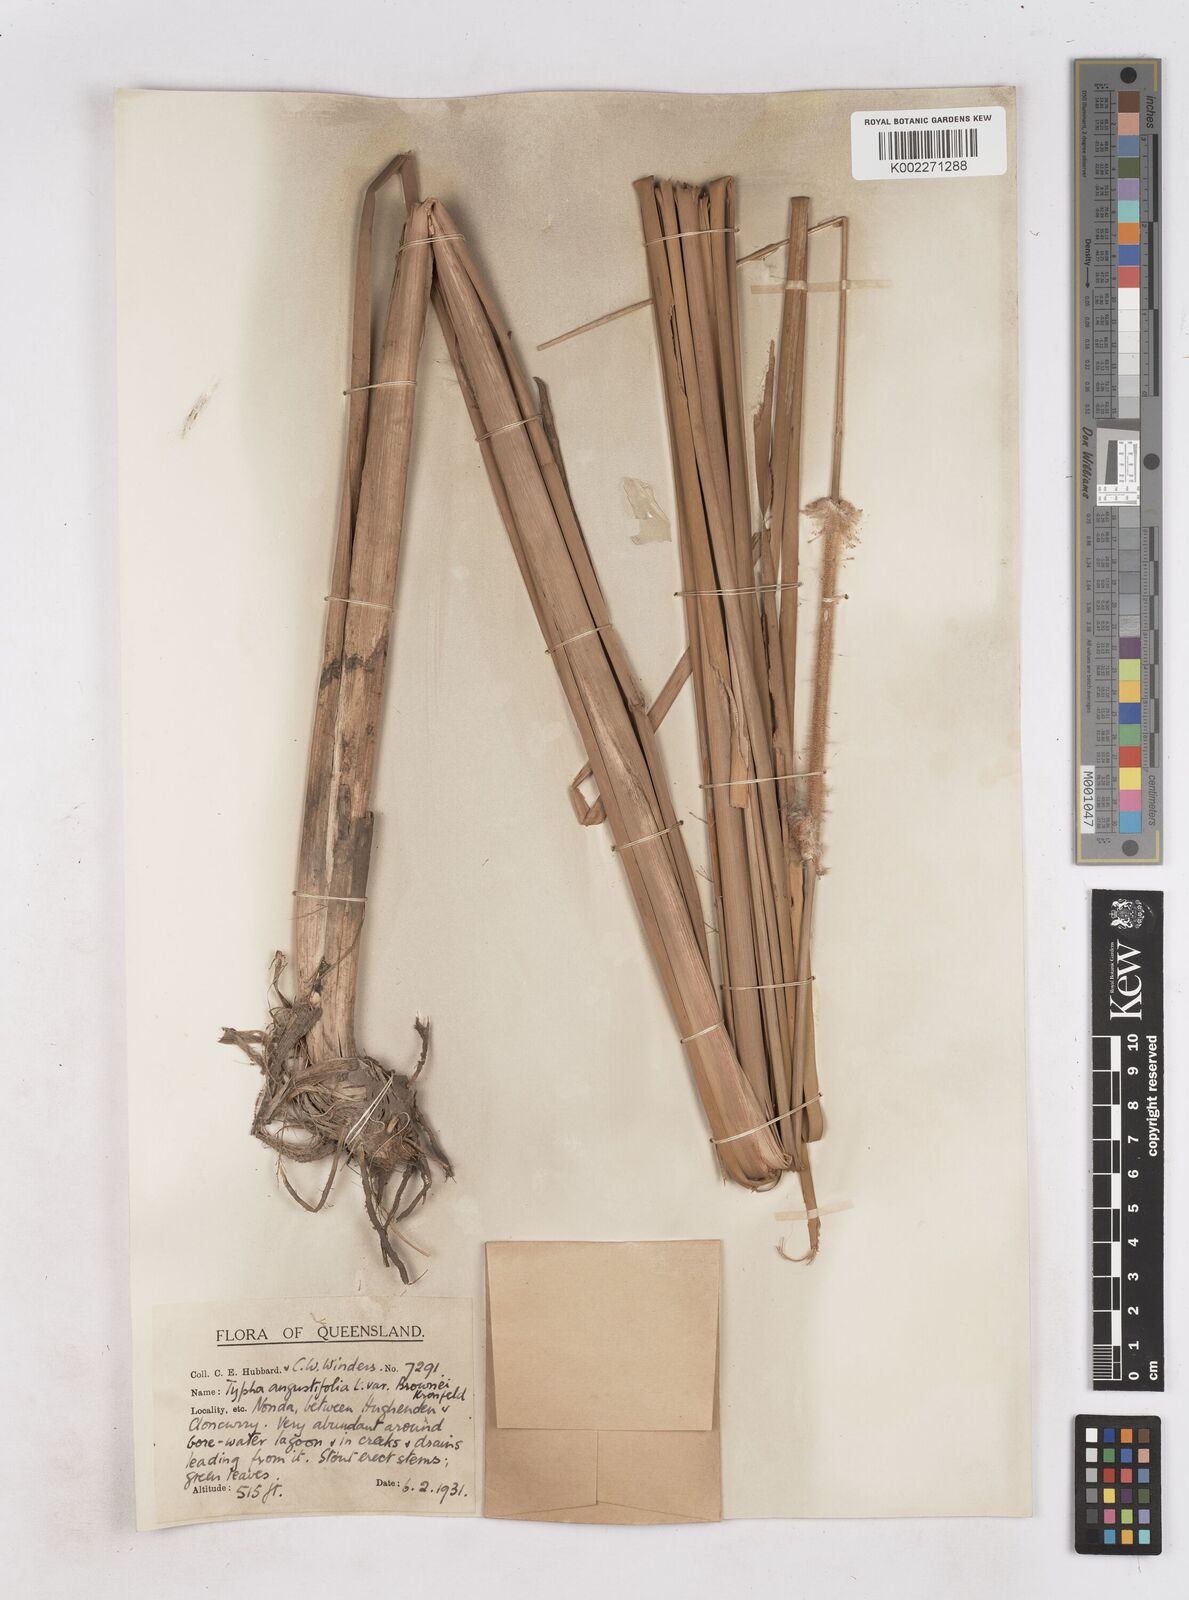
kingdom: Plantae
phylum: Tracheophyta
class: Liliopsida
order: Poales
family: Typhaceae
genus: Typha
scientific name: Typha domingensis
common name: Southern cattail
